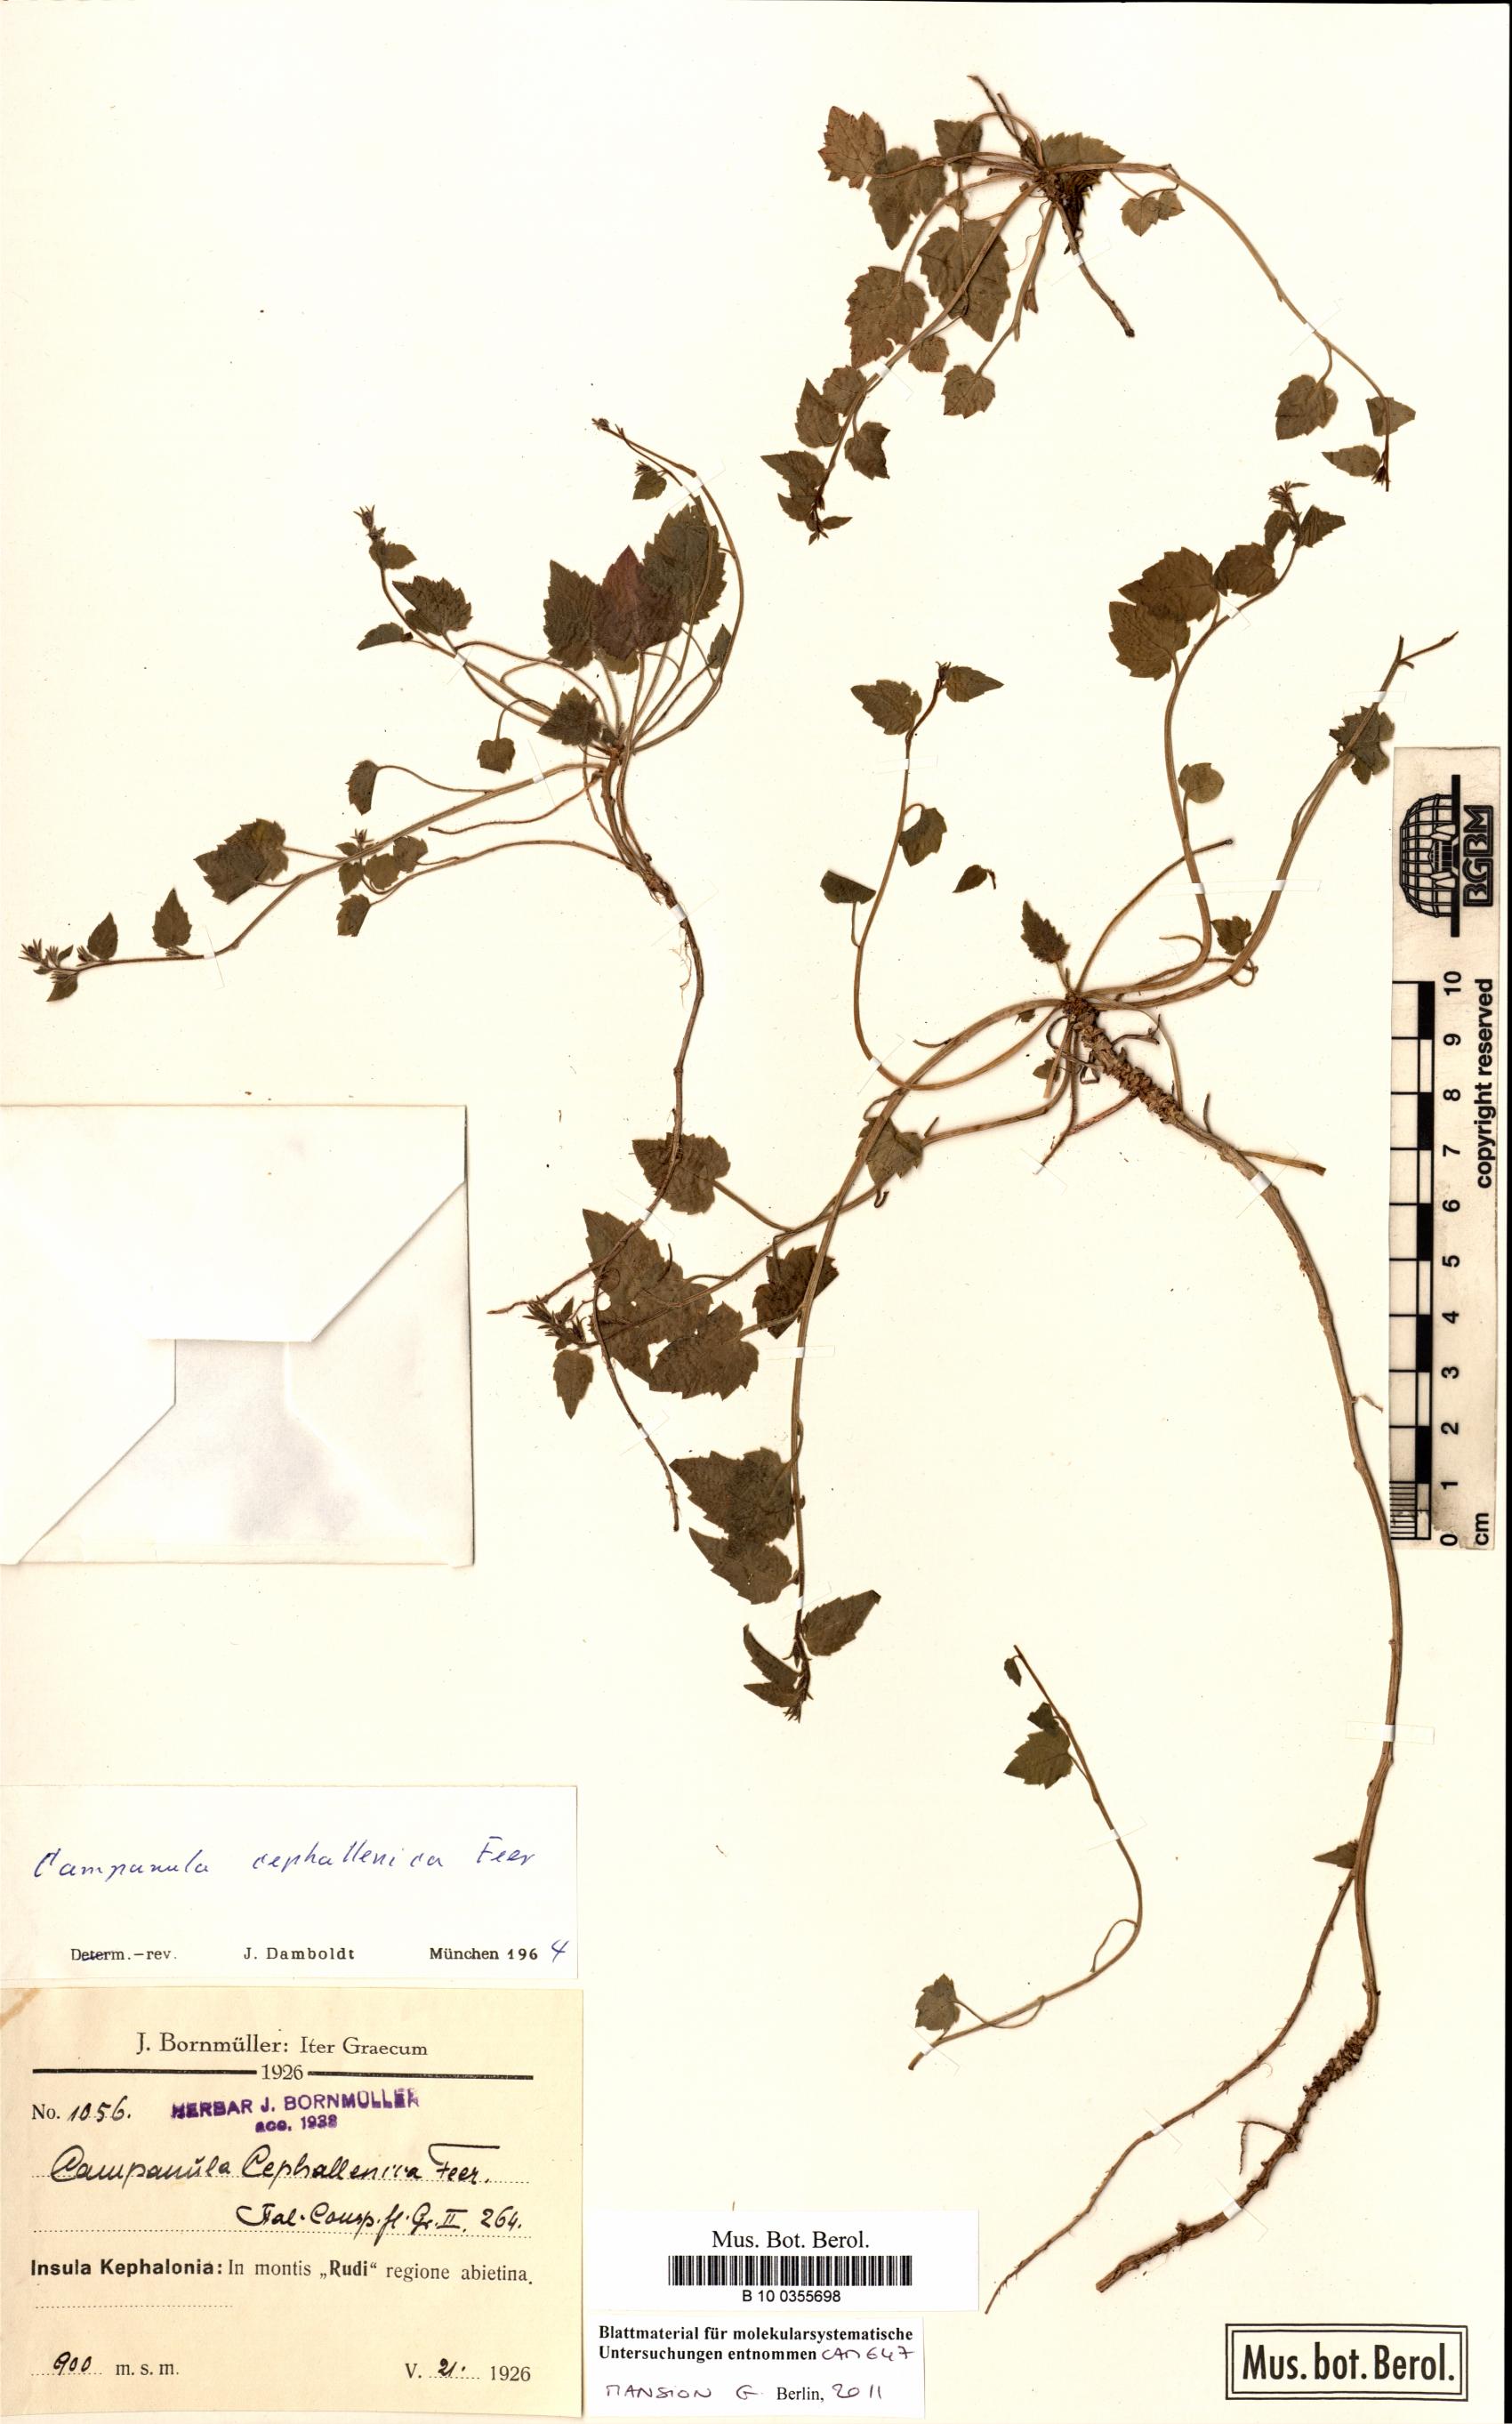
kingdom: Plantae
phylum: Tracheophyta
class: Magnoliopsida
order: Asterales
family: Campanulaceae
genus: Campanula
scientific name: Campanula garganica
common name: Adriatic bellflower
